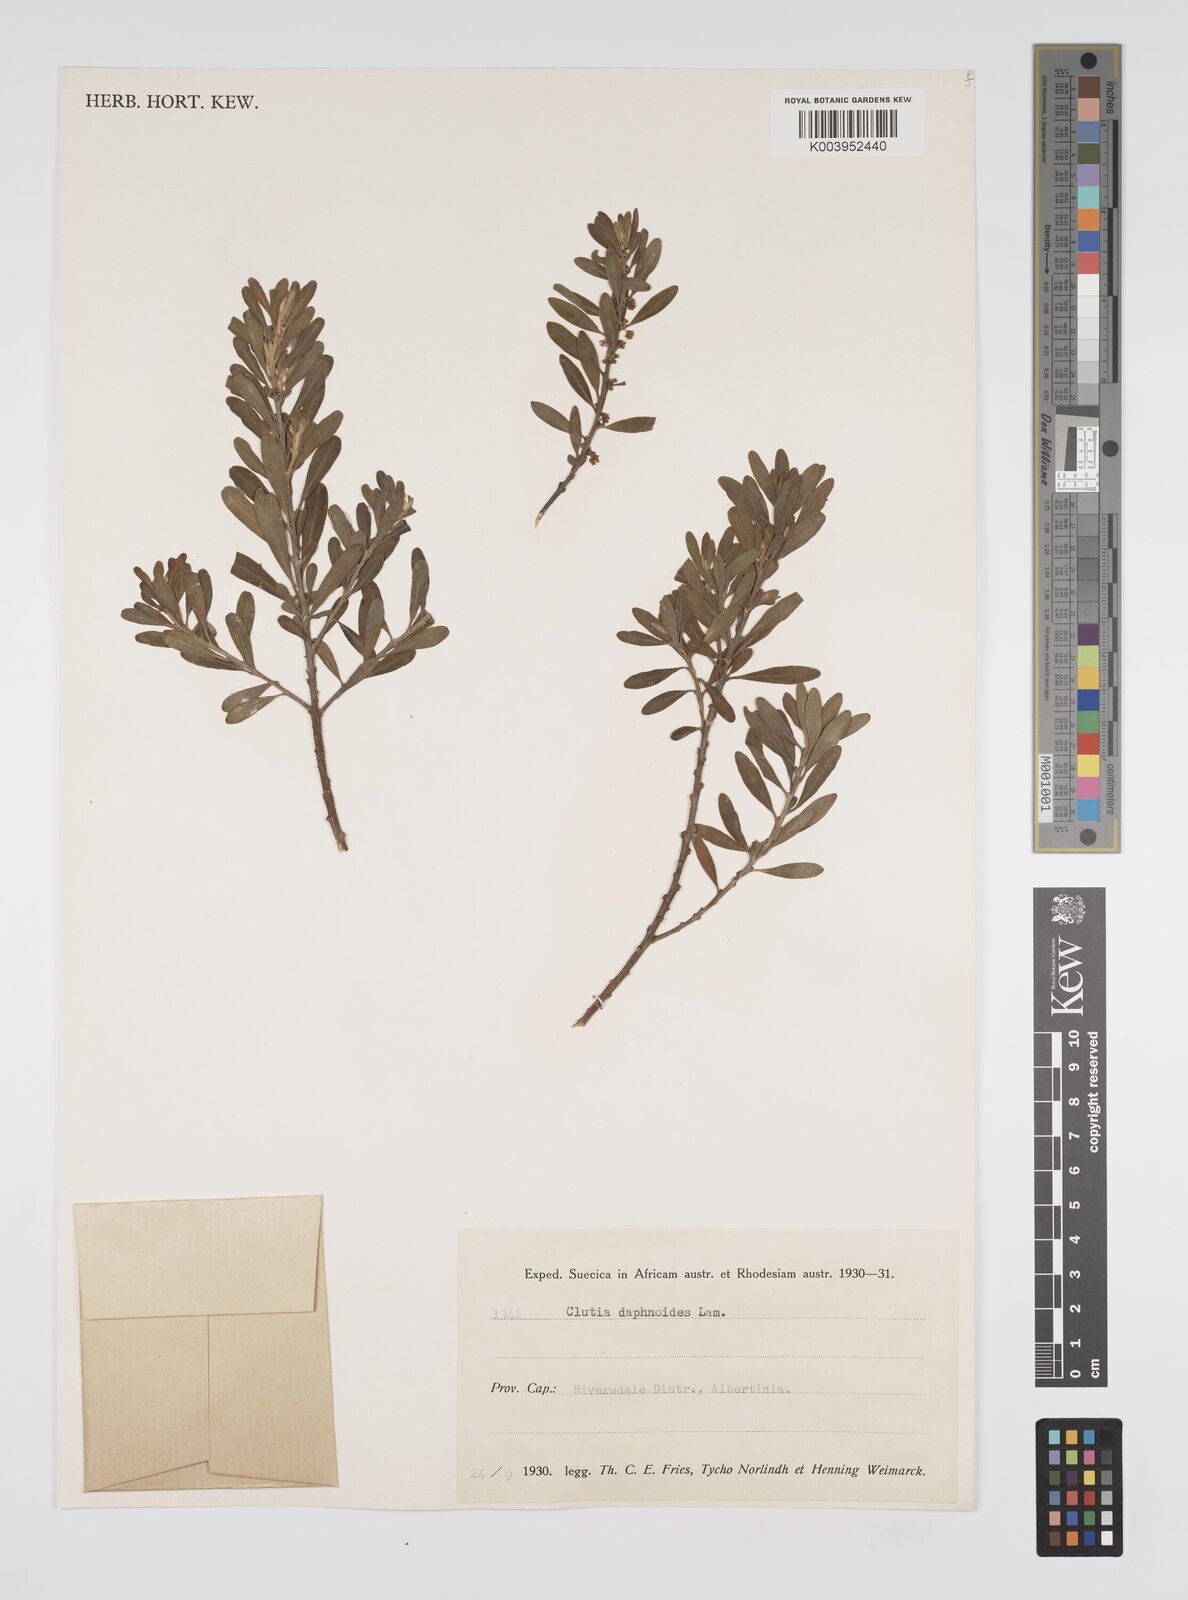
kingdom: Plantae
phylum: Tracheophyta
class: Magnoliopsida
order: Malpighiales
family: Peraceae
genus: Clutia
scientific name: Clutia daphnoides
